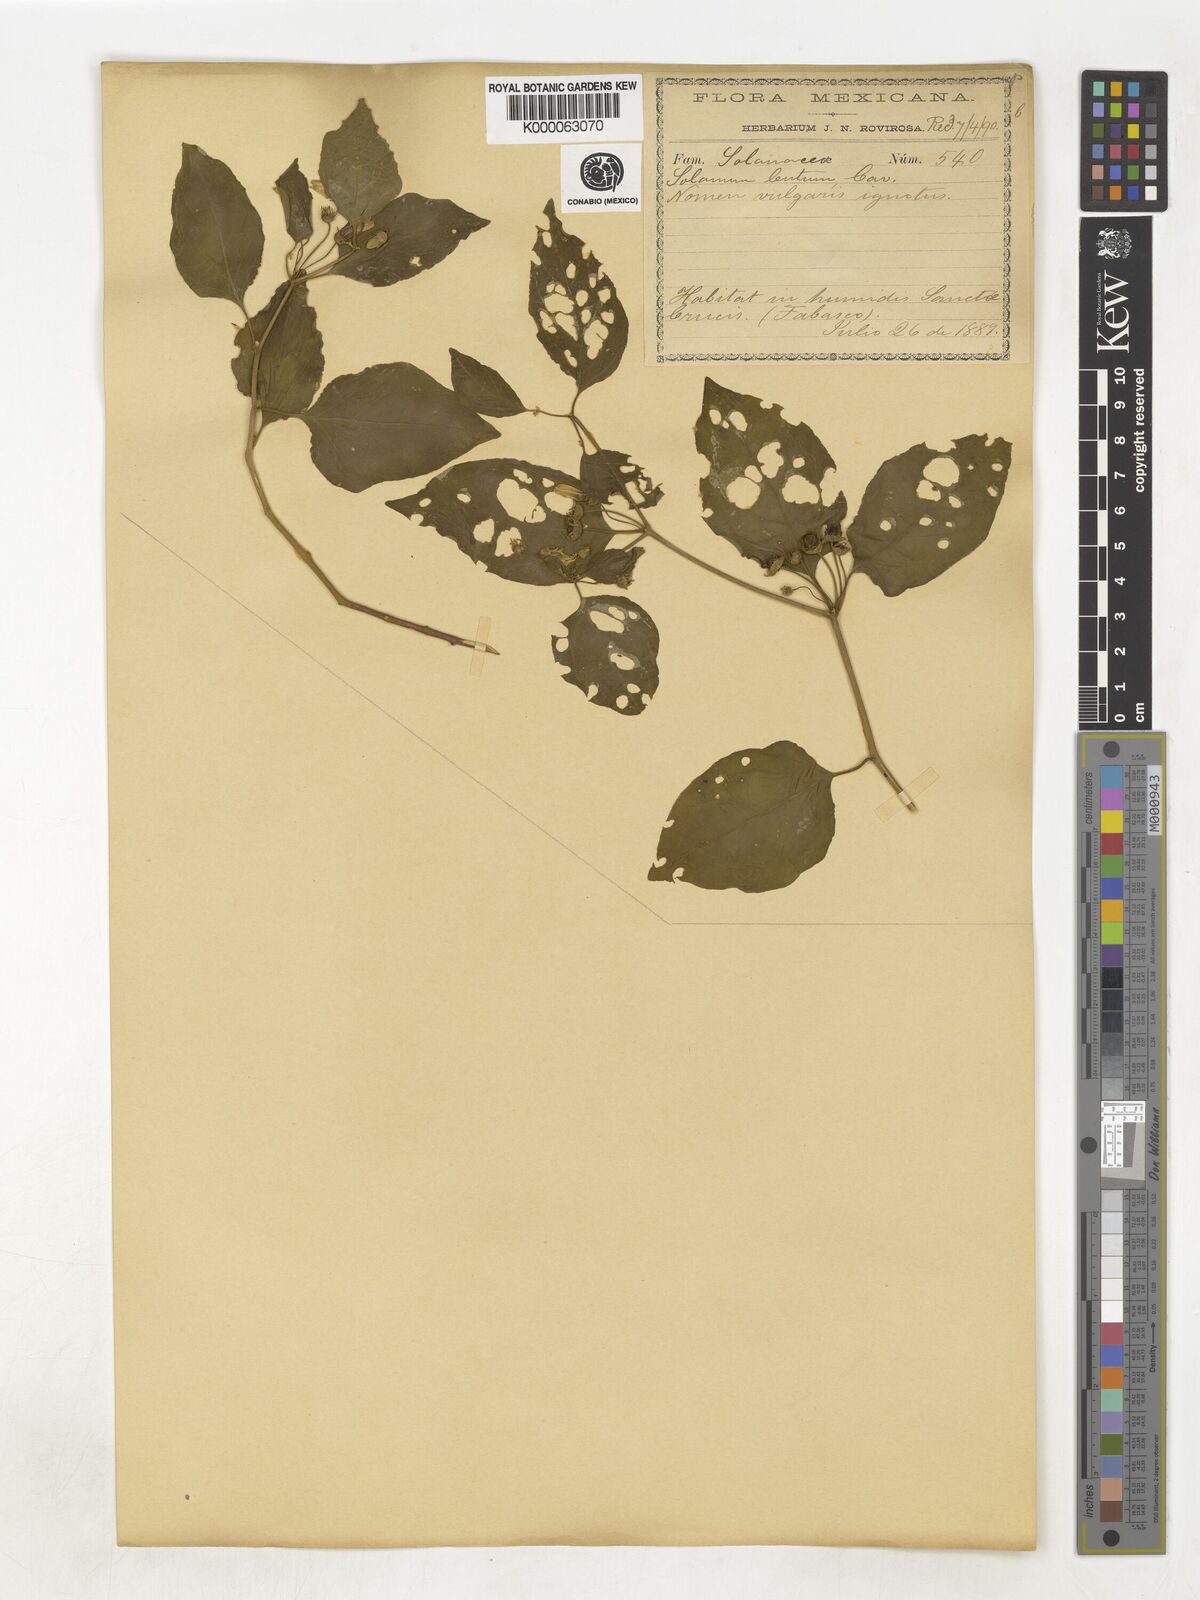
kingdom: Plantae
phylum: Tracheophyta
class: Magnoliopsida
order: Solanales
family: Solanaceae
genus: Lycianthes
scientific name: Lycianthes scandens
